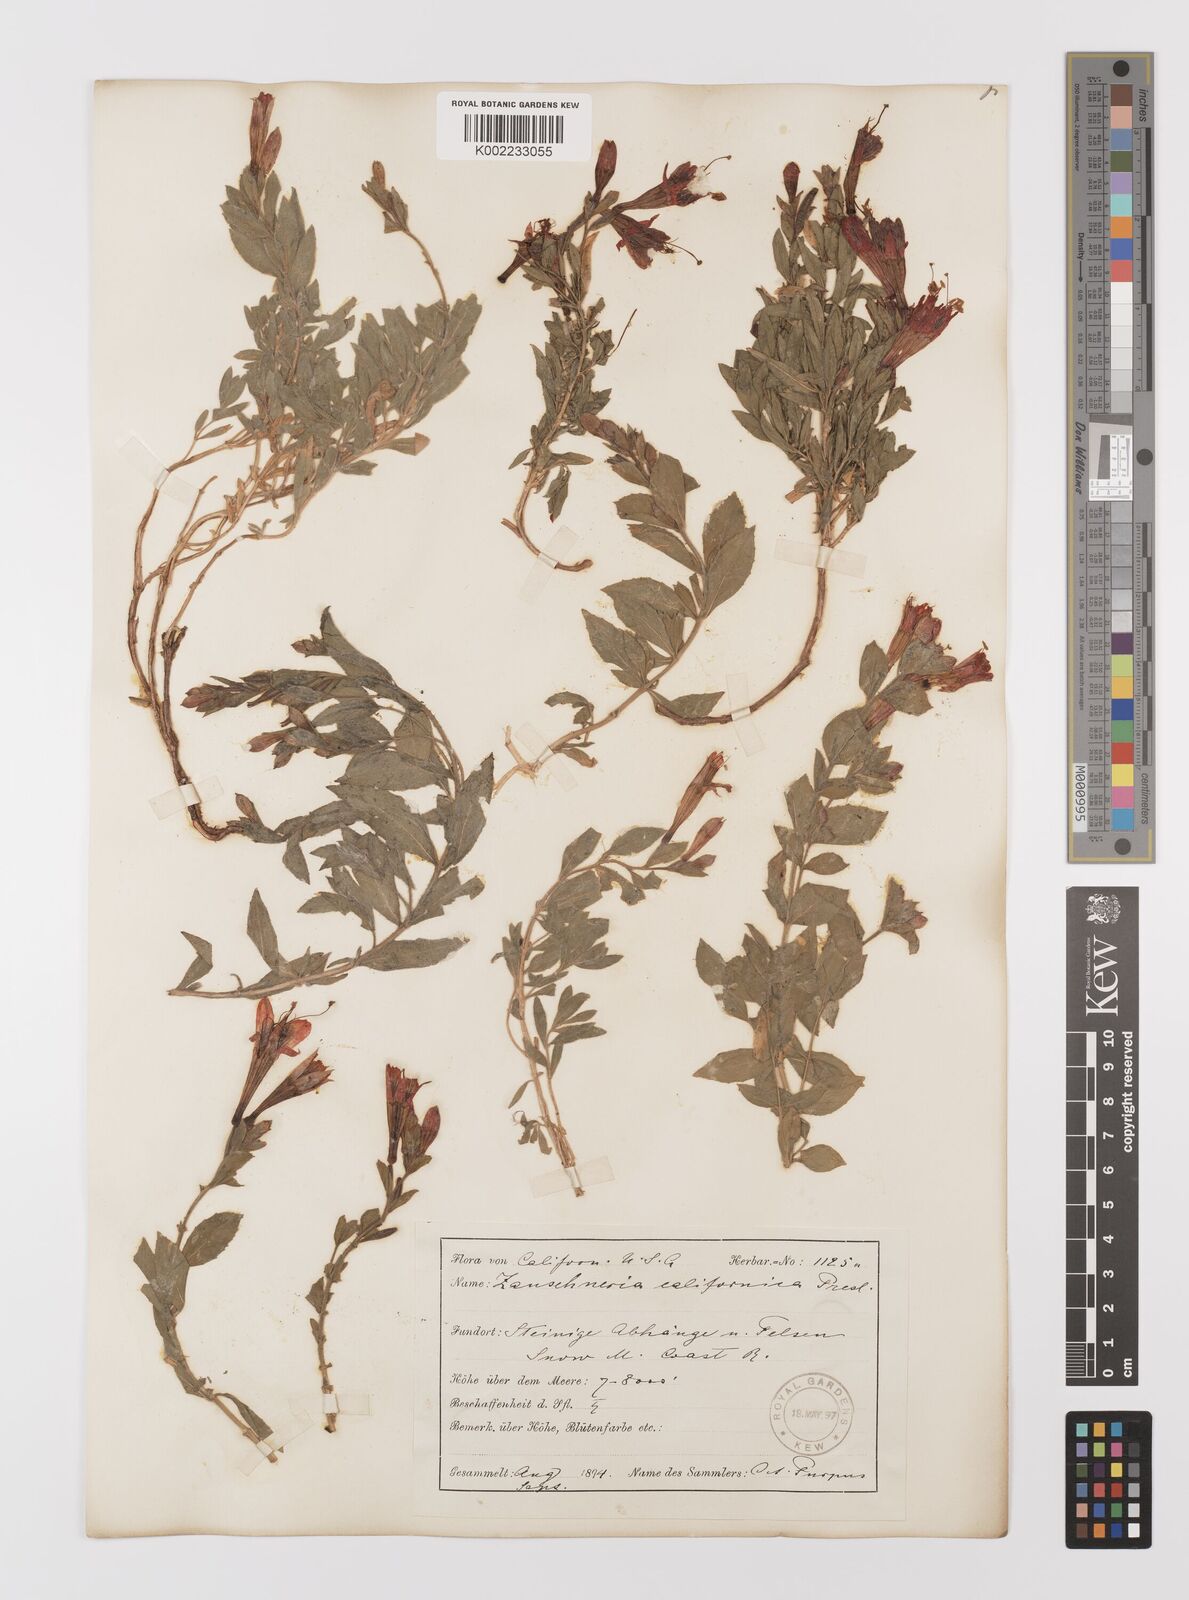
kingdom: Plantae
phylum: Tracheophyta
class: Magnoliopsida
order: Myrtales
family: Onagraceae
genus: Epilobium
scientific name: Epilobium
